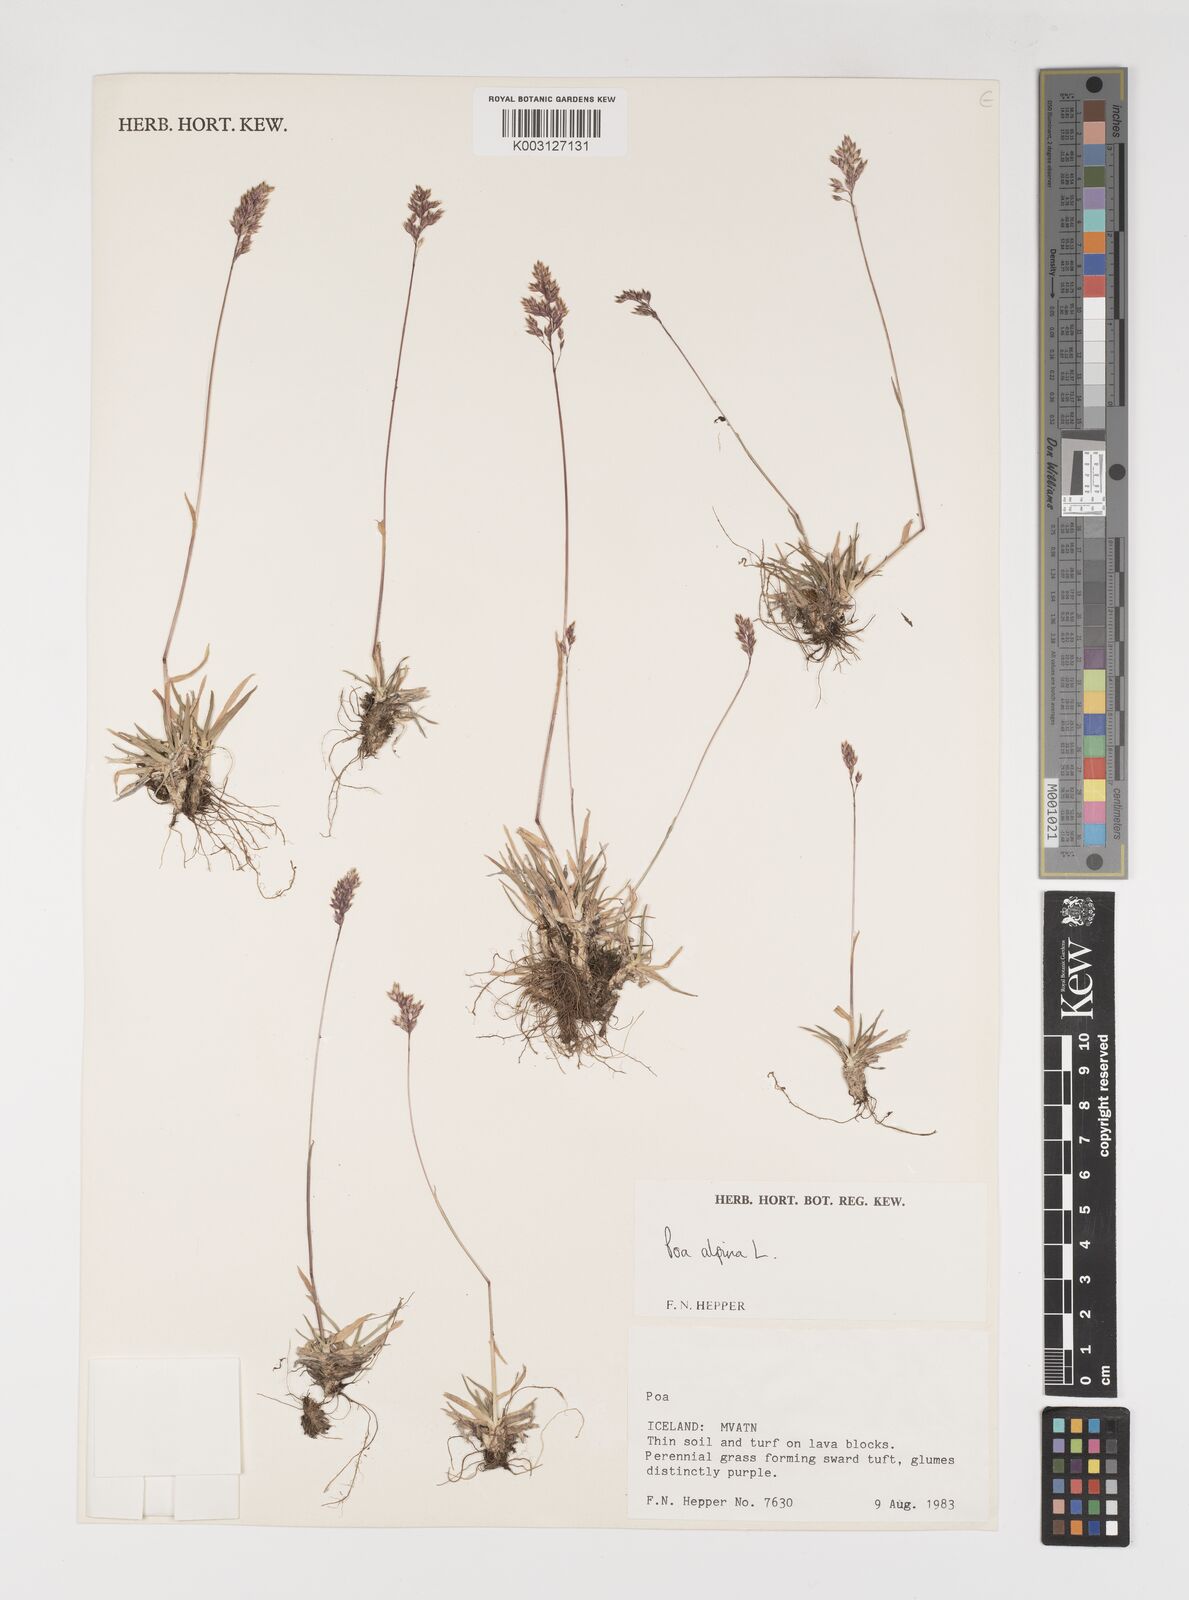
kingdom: Plantae
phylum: Tracheophyta
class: Liliopsida
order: Poales
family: Poaceae
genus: Poa
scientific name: Poa alpina
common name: Alpine bluegrass
